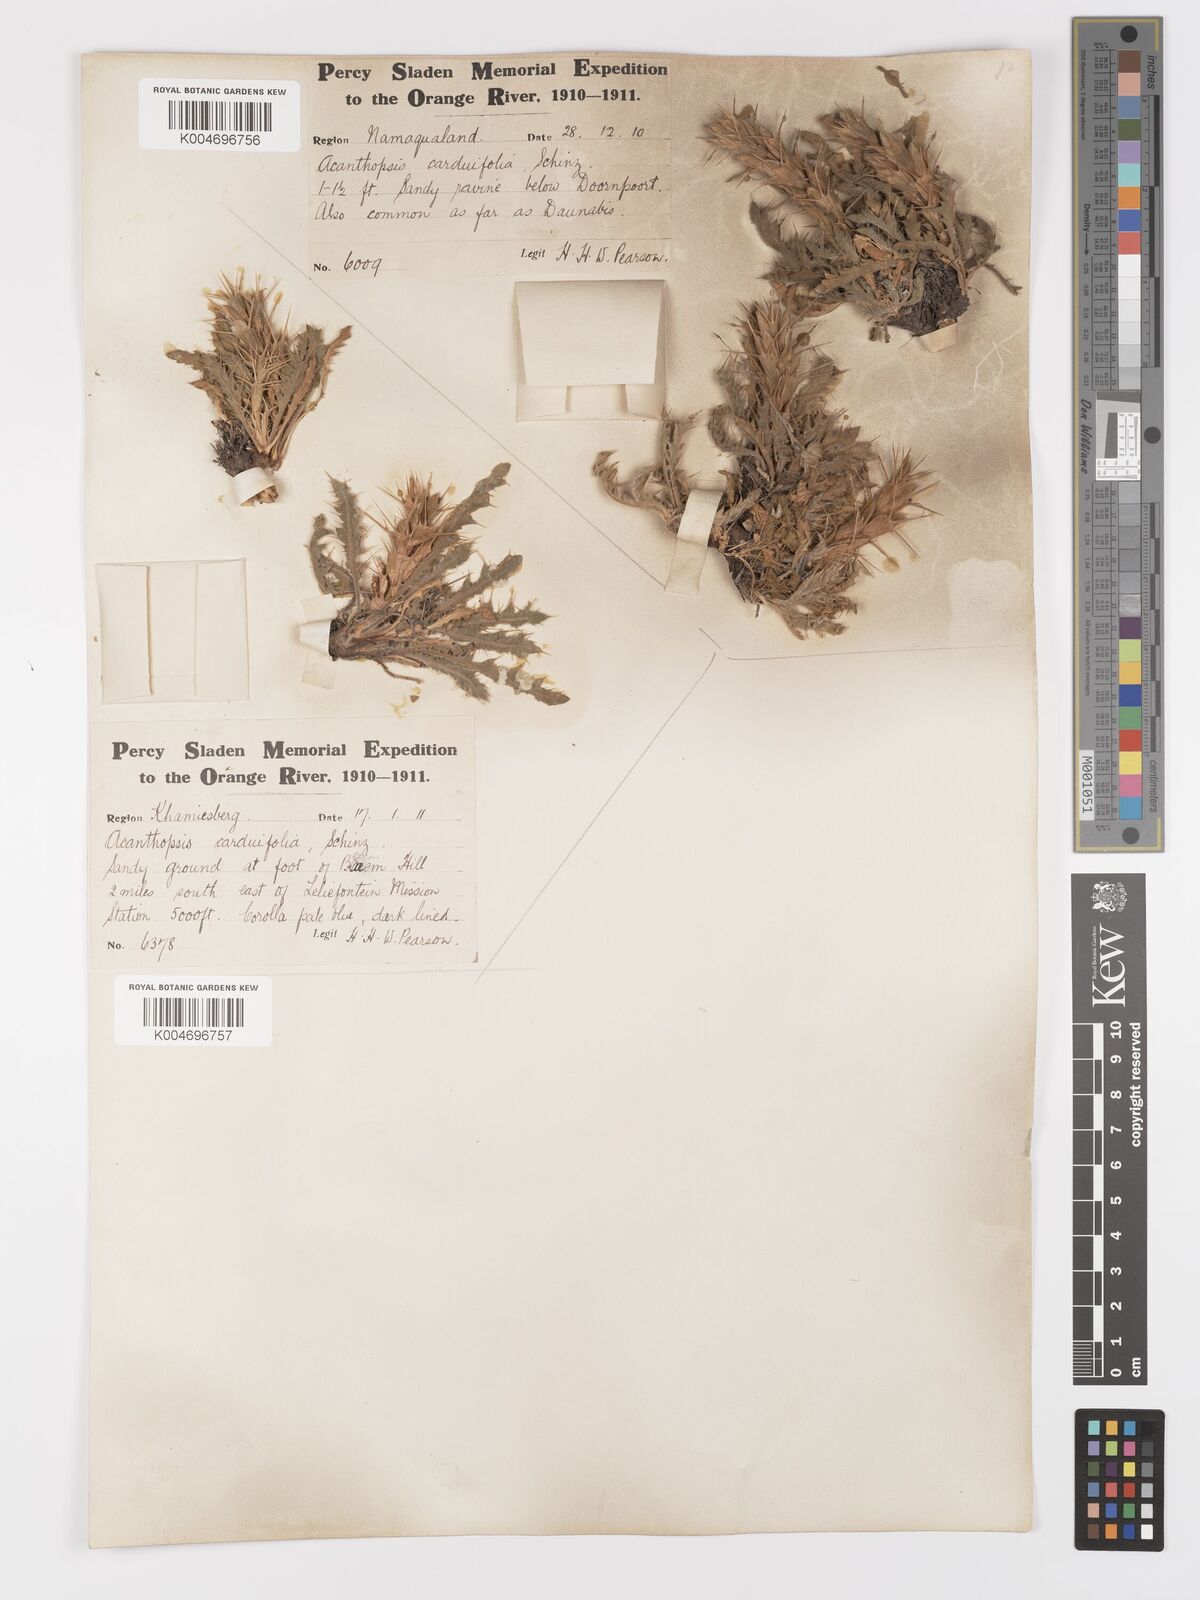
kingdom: Plantae
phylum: Tracheophyta
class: Magnoliopsida
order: Lamiales
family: Acanthaceae
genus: Acanthopsis
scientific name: Acanthopsis carduifolia
